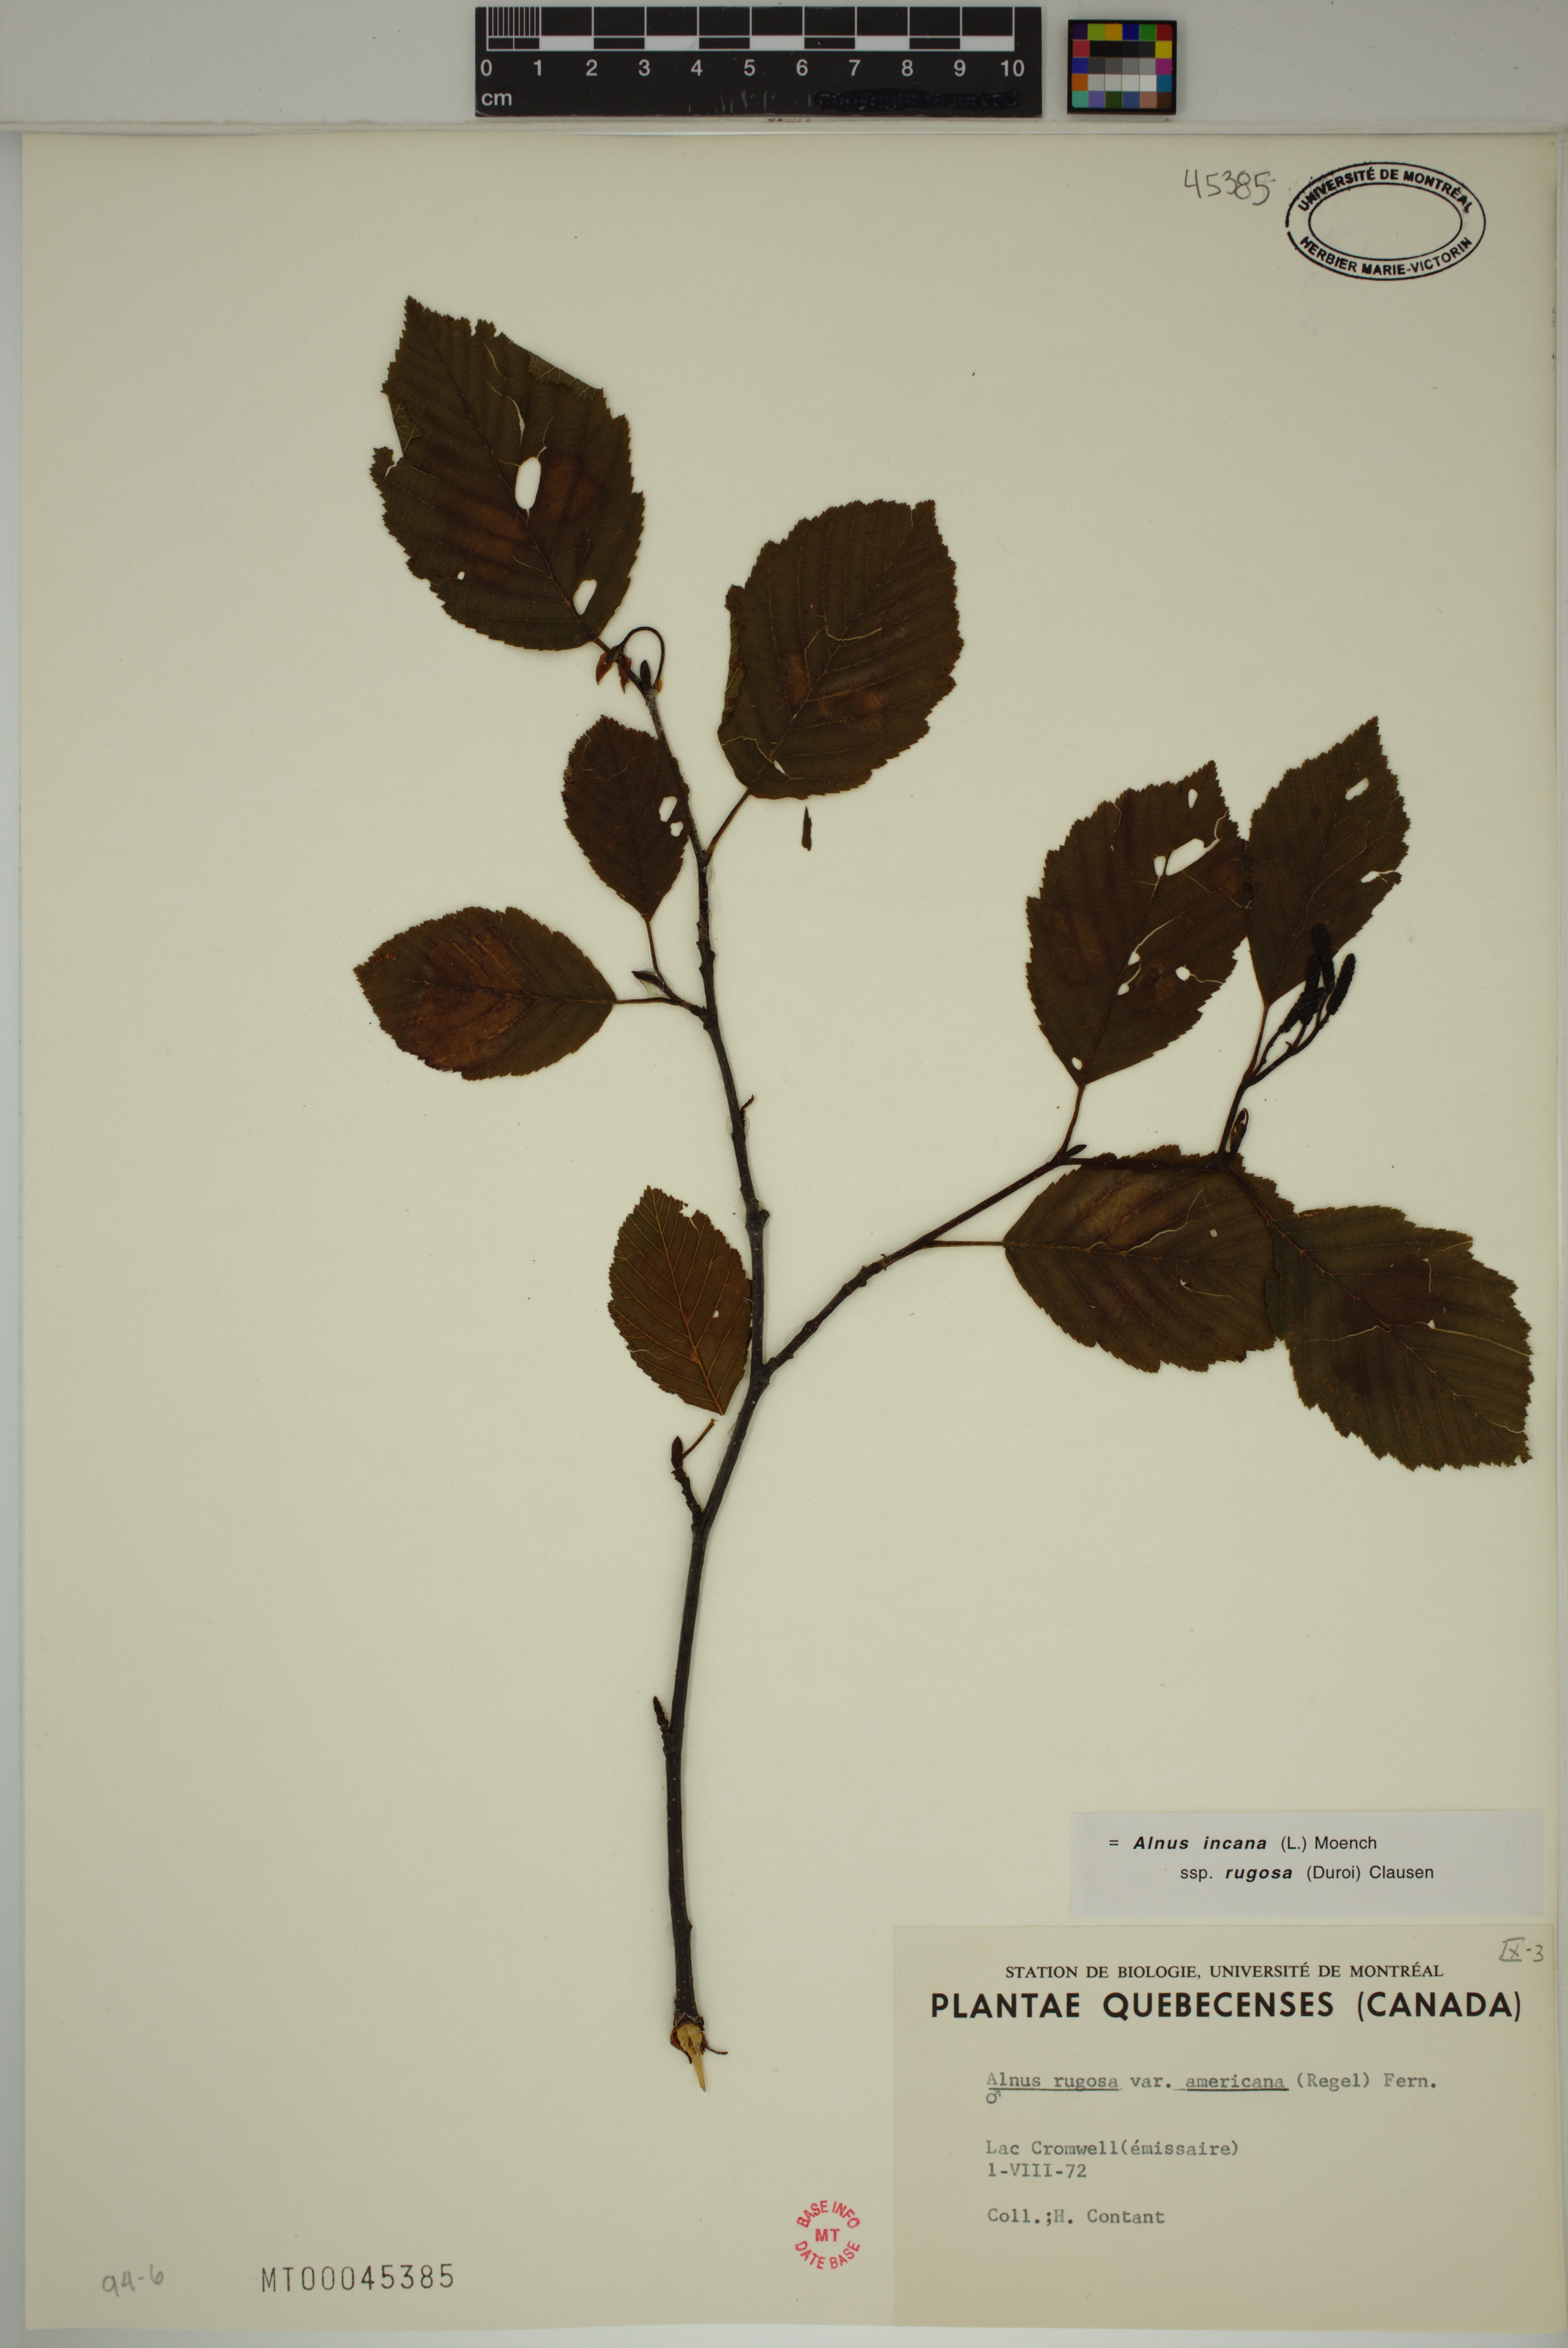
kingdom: Plantae
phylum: Tracheophyta
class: Magnoliopsida
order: Fagales
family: Betulaceae
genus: Alnus
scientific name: Alnus incana
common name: Grey alder
